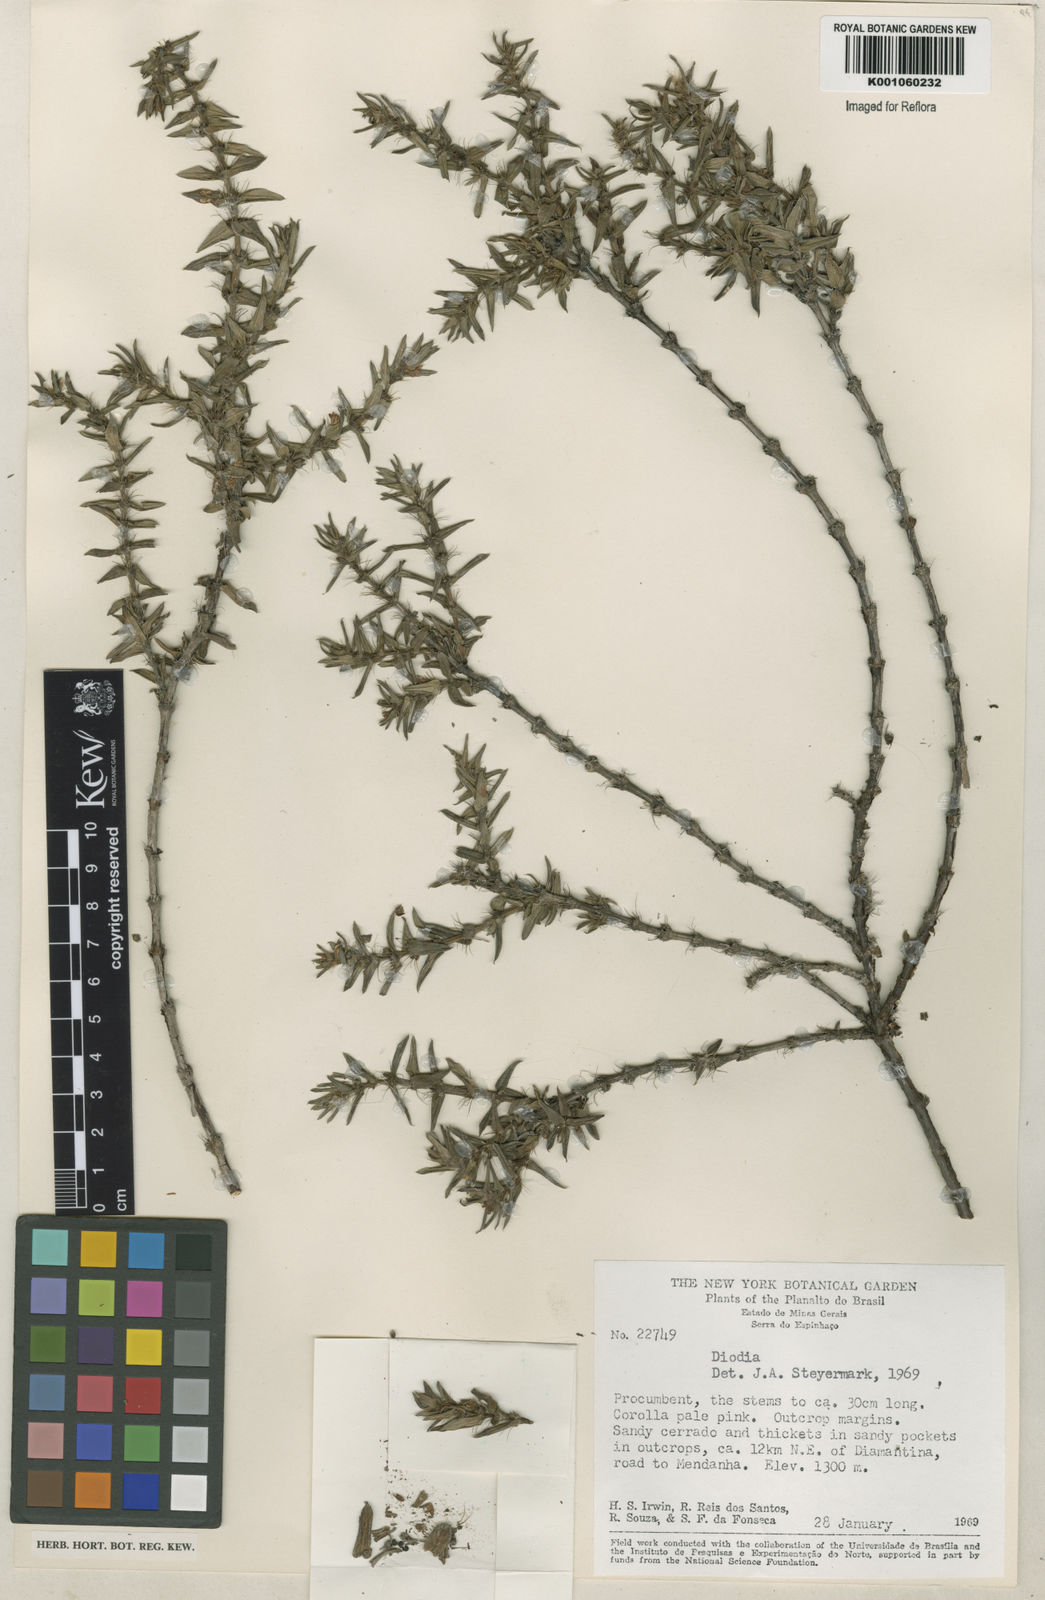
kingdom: Plantae
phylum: Tracheophyta
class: Magnoliopsida
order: Gentianales
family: Rubiaceae
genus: Hexasepalum
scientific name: Hexasepalum apiculatum
